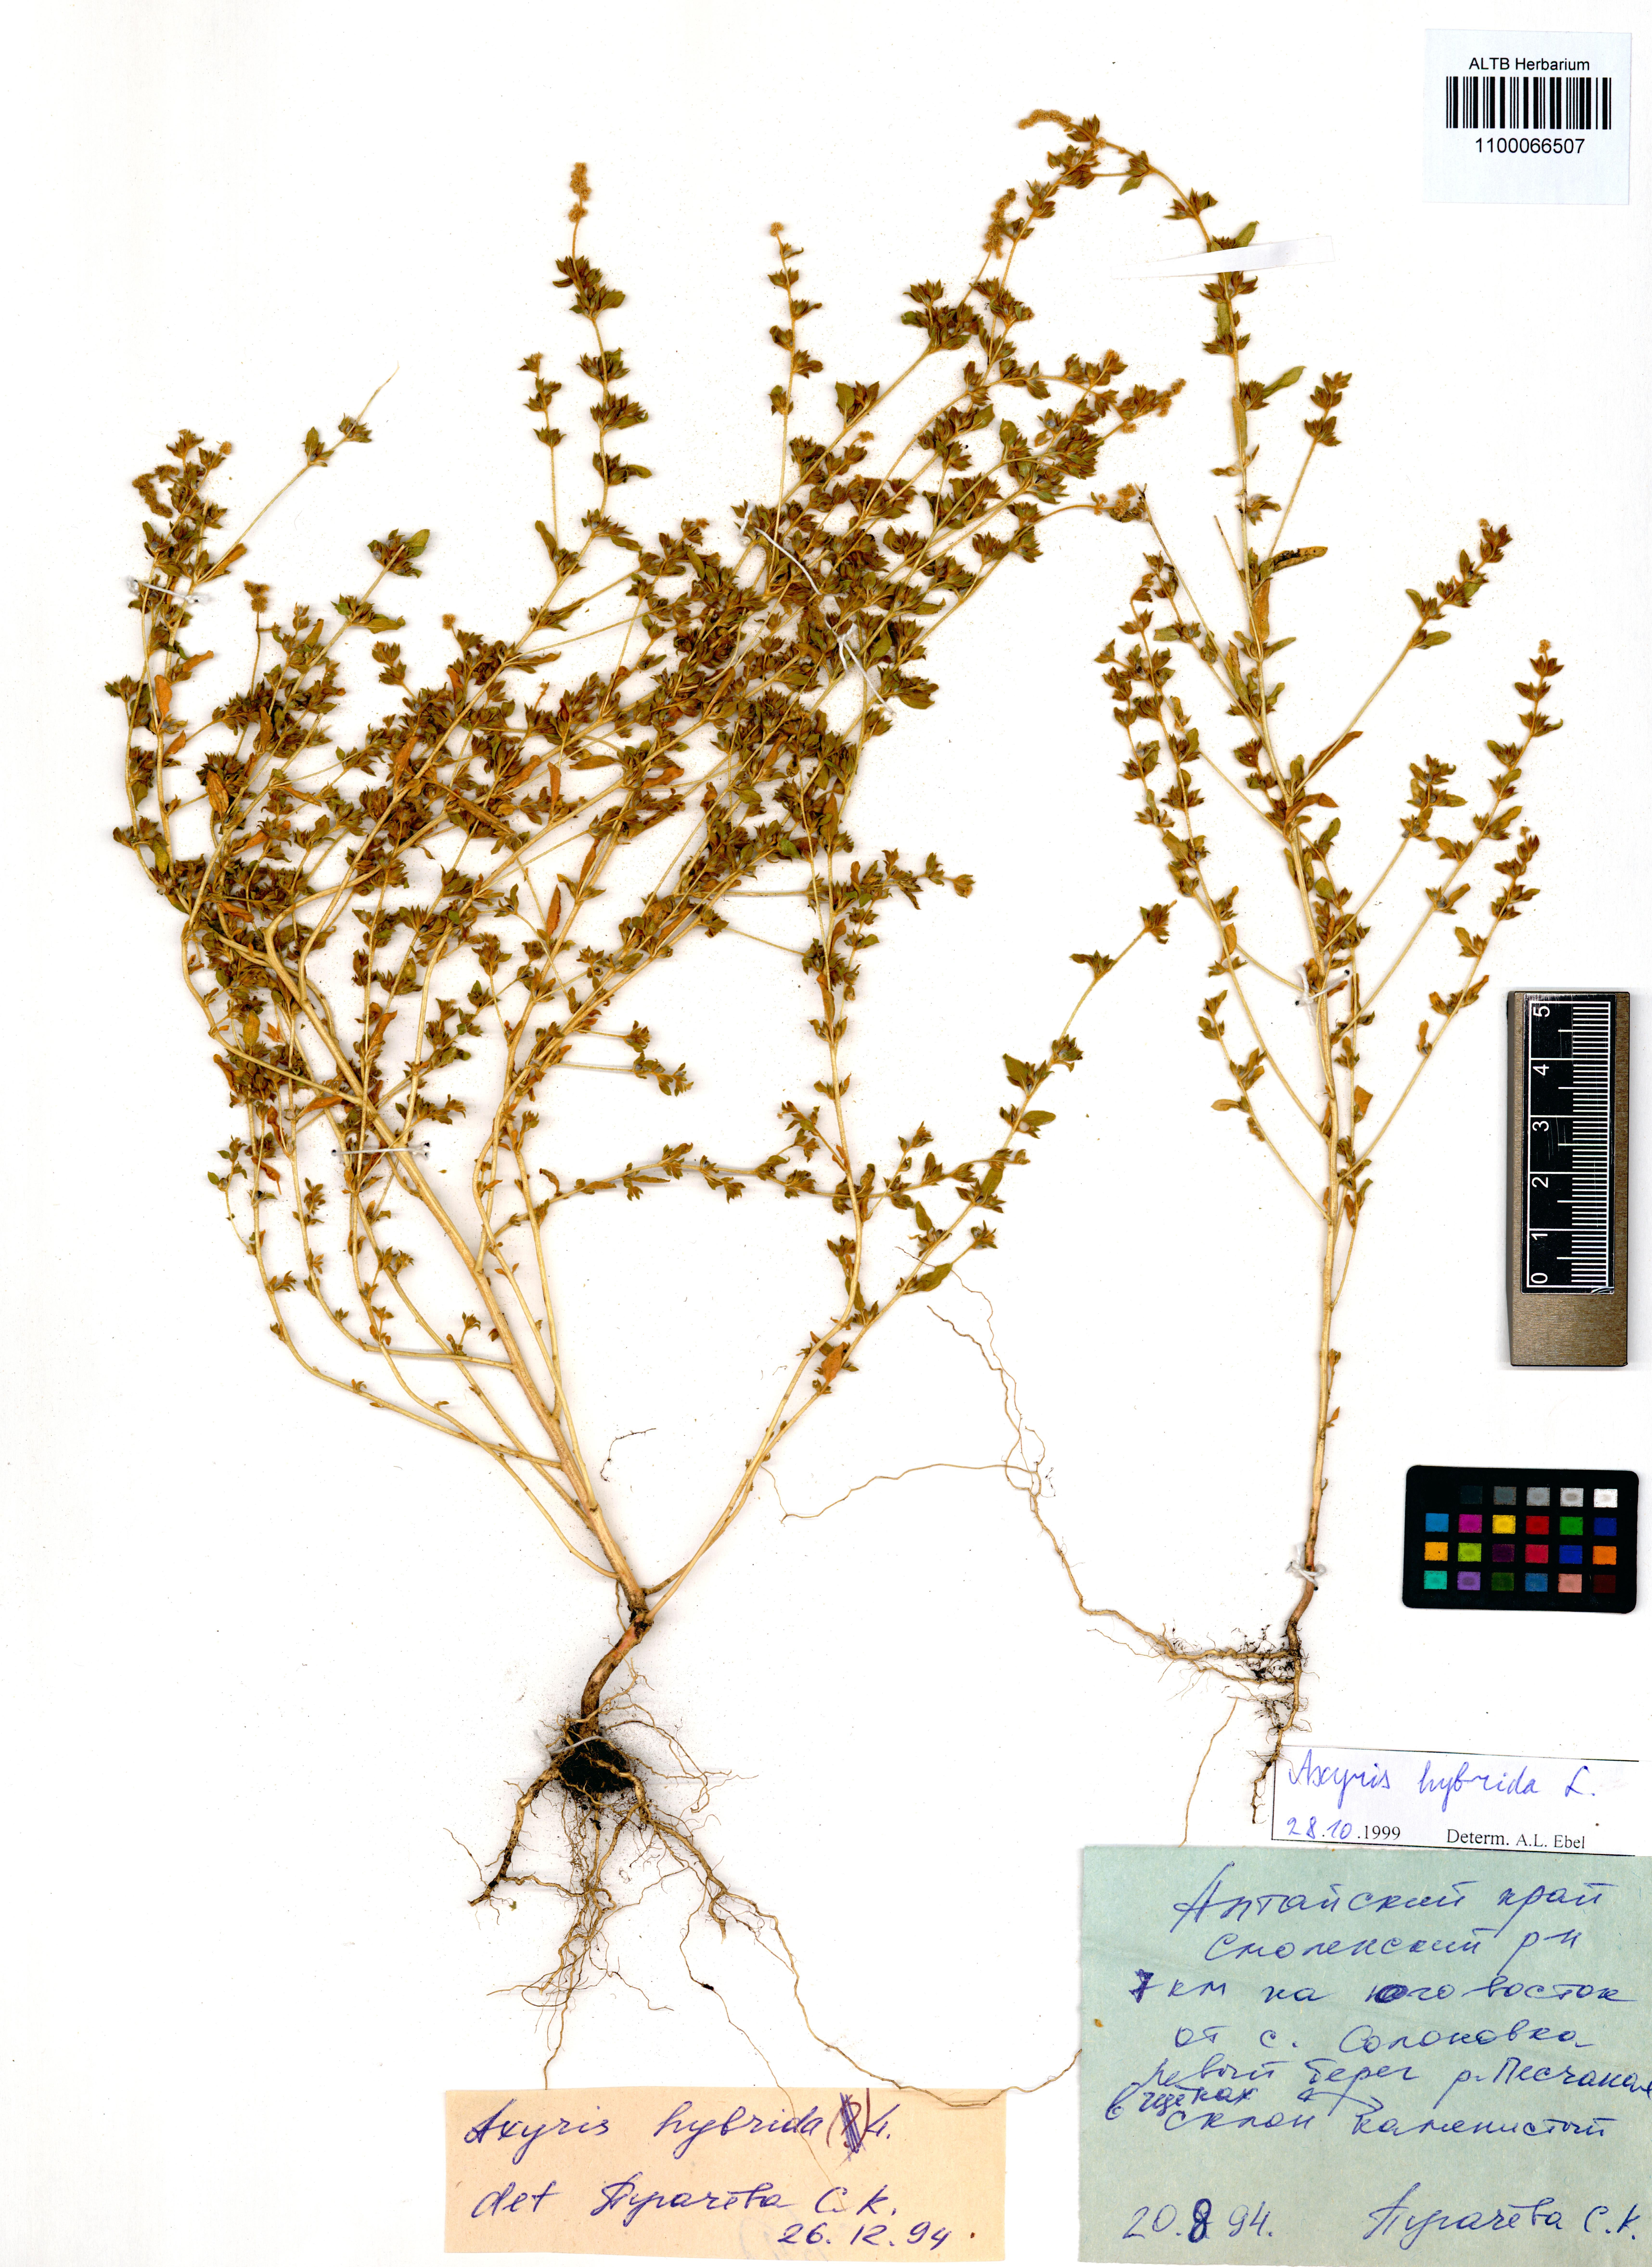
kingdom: Plantae
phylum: Tracheophyta
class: Magnoliopsida
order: Caryophyllales
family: Amaranthaceae
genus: Axyris
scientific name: Axyris hybrida
